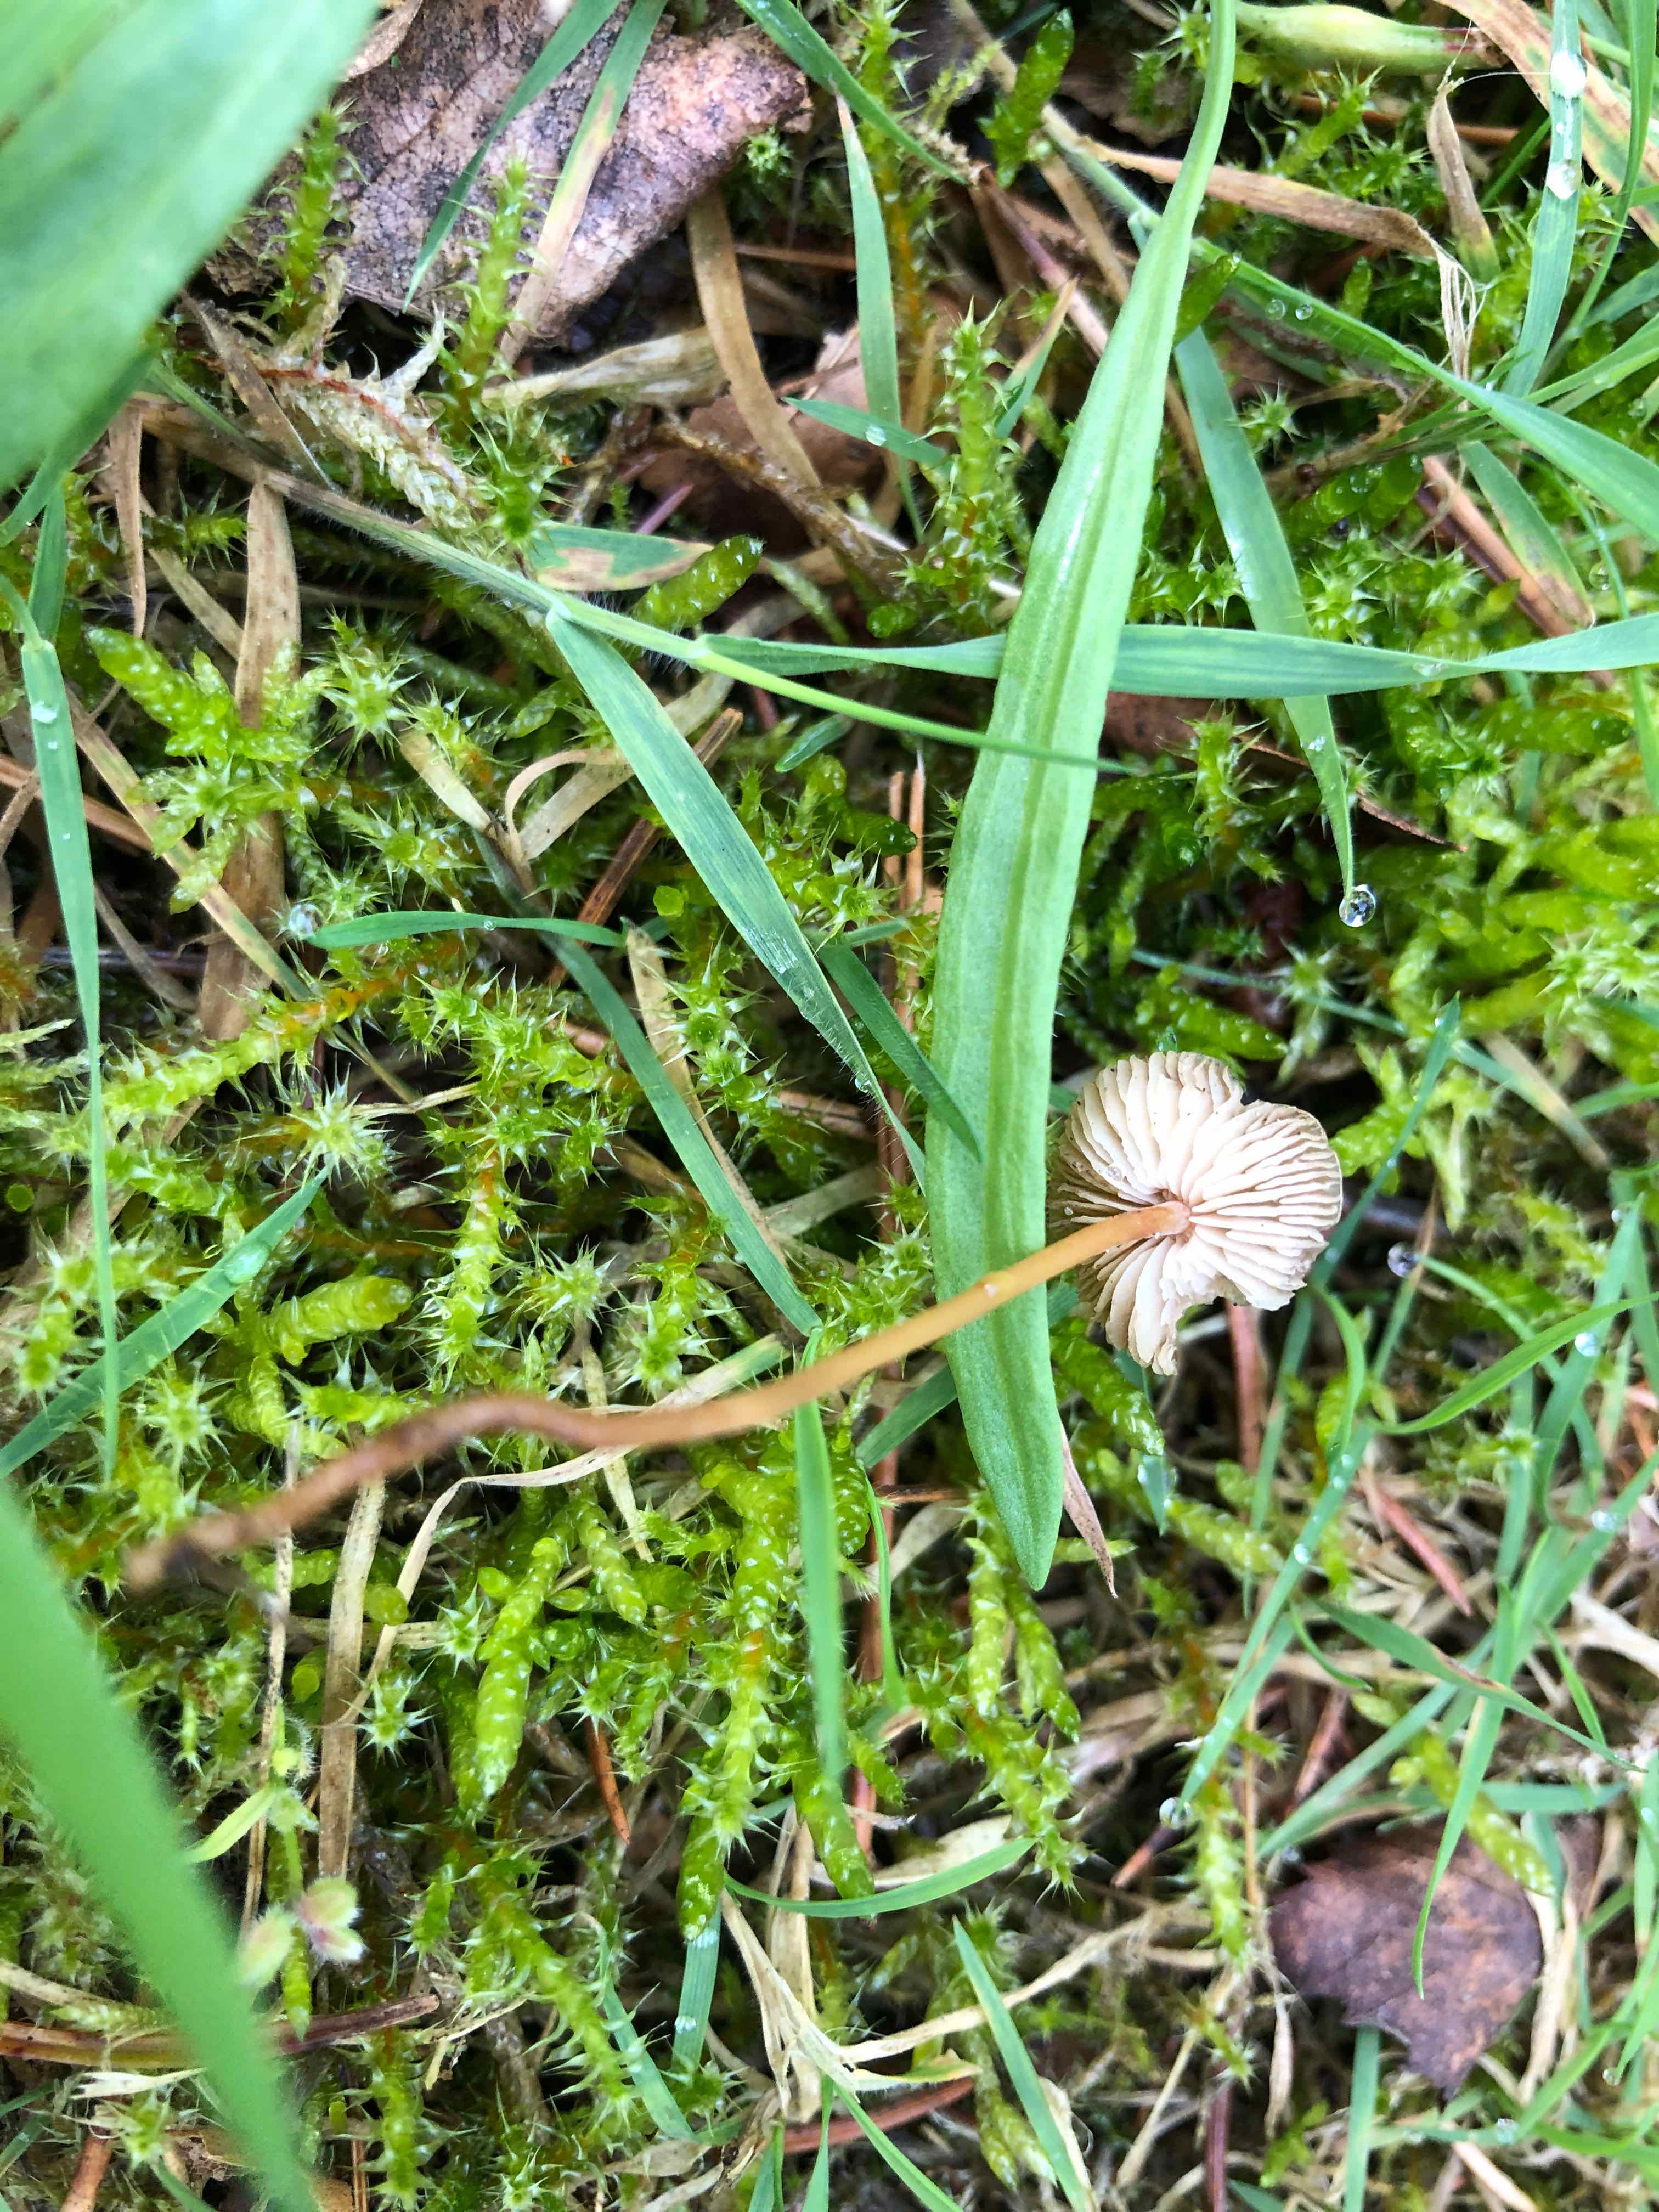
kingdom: Fungi
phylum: Basidiomycota
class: Agaricomycetes
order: Agaricales
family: Physalacriaceae
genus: Strobilurus
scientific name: Strobilurus
